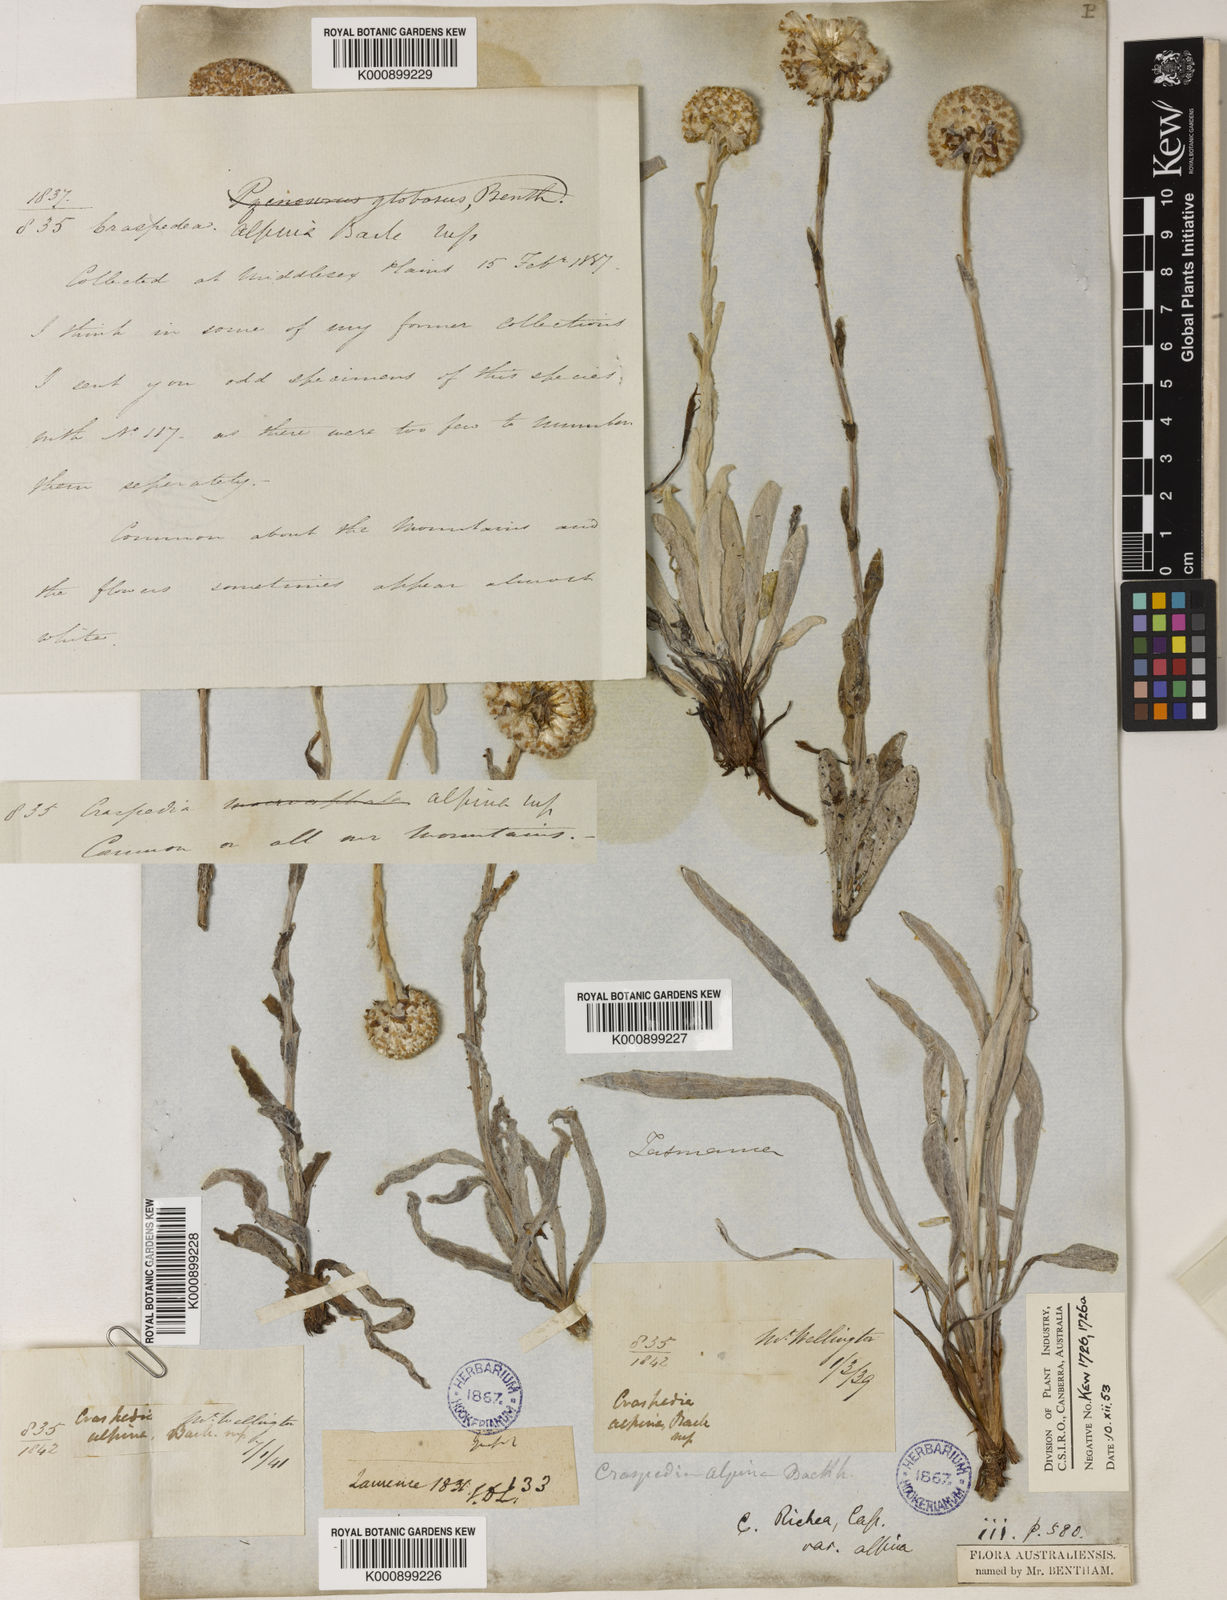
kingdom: Plantae
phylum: Tracheophyta
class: Magnoliopsida
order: Asterales
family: Asteraceae
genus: Craspedia
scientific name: Craspedia glauca
